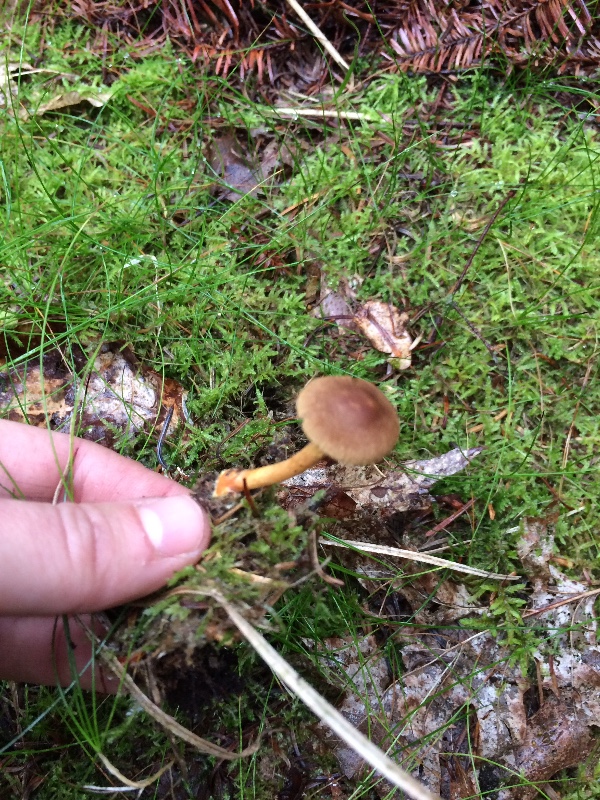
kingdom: Fungi
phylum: Basidiomycota
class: Agaricomycetes
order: Agaricales
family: Cortinariaceae
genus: Cortinarius
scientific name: Cortinarius
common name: gulbladet slørhat
